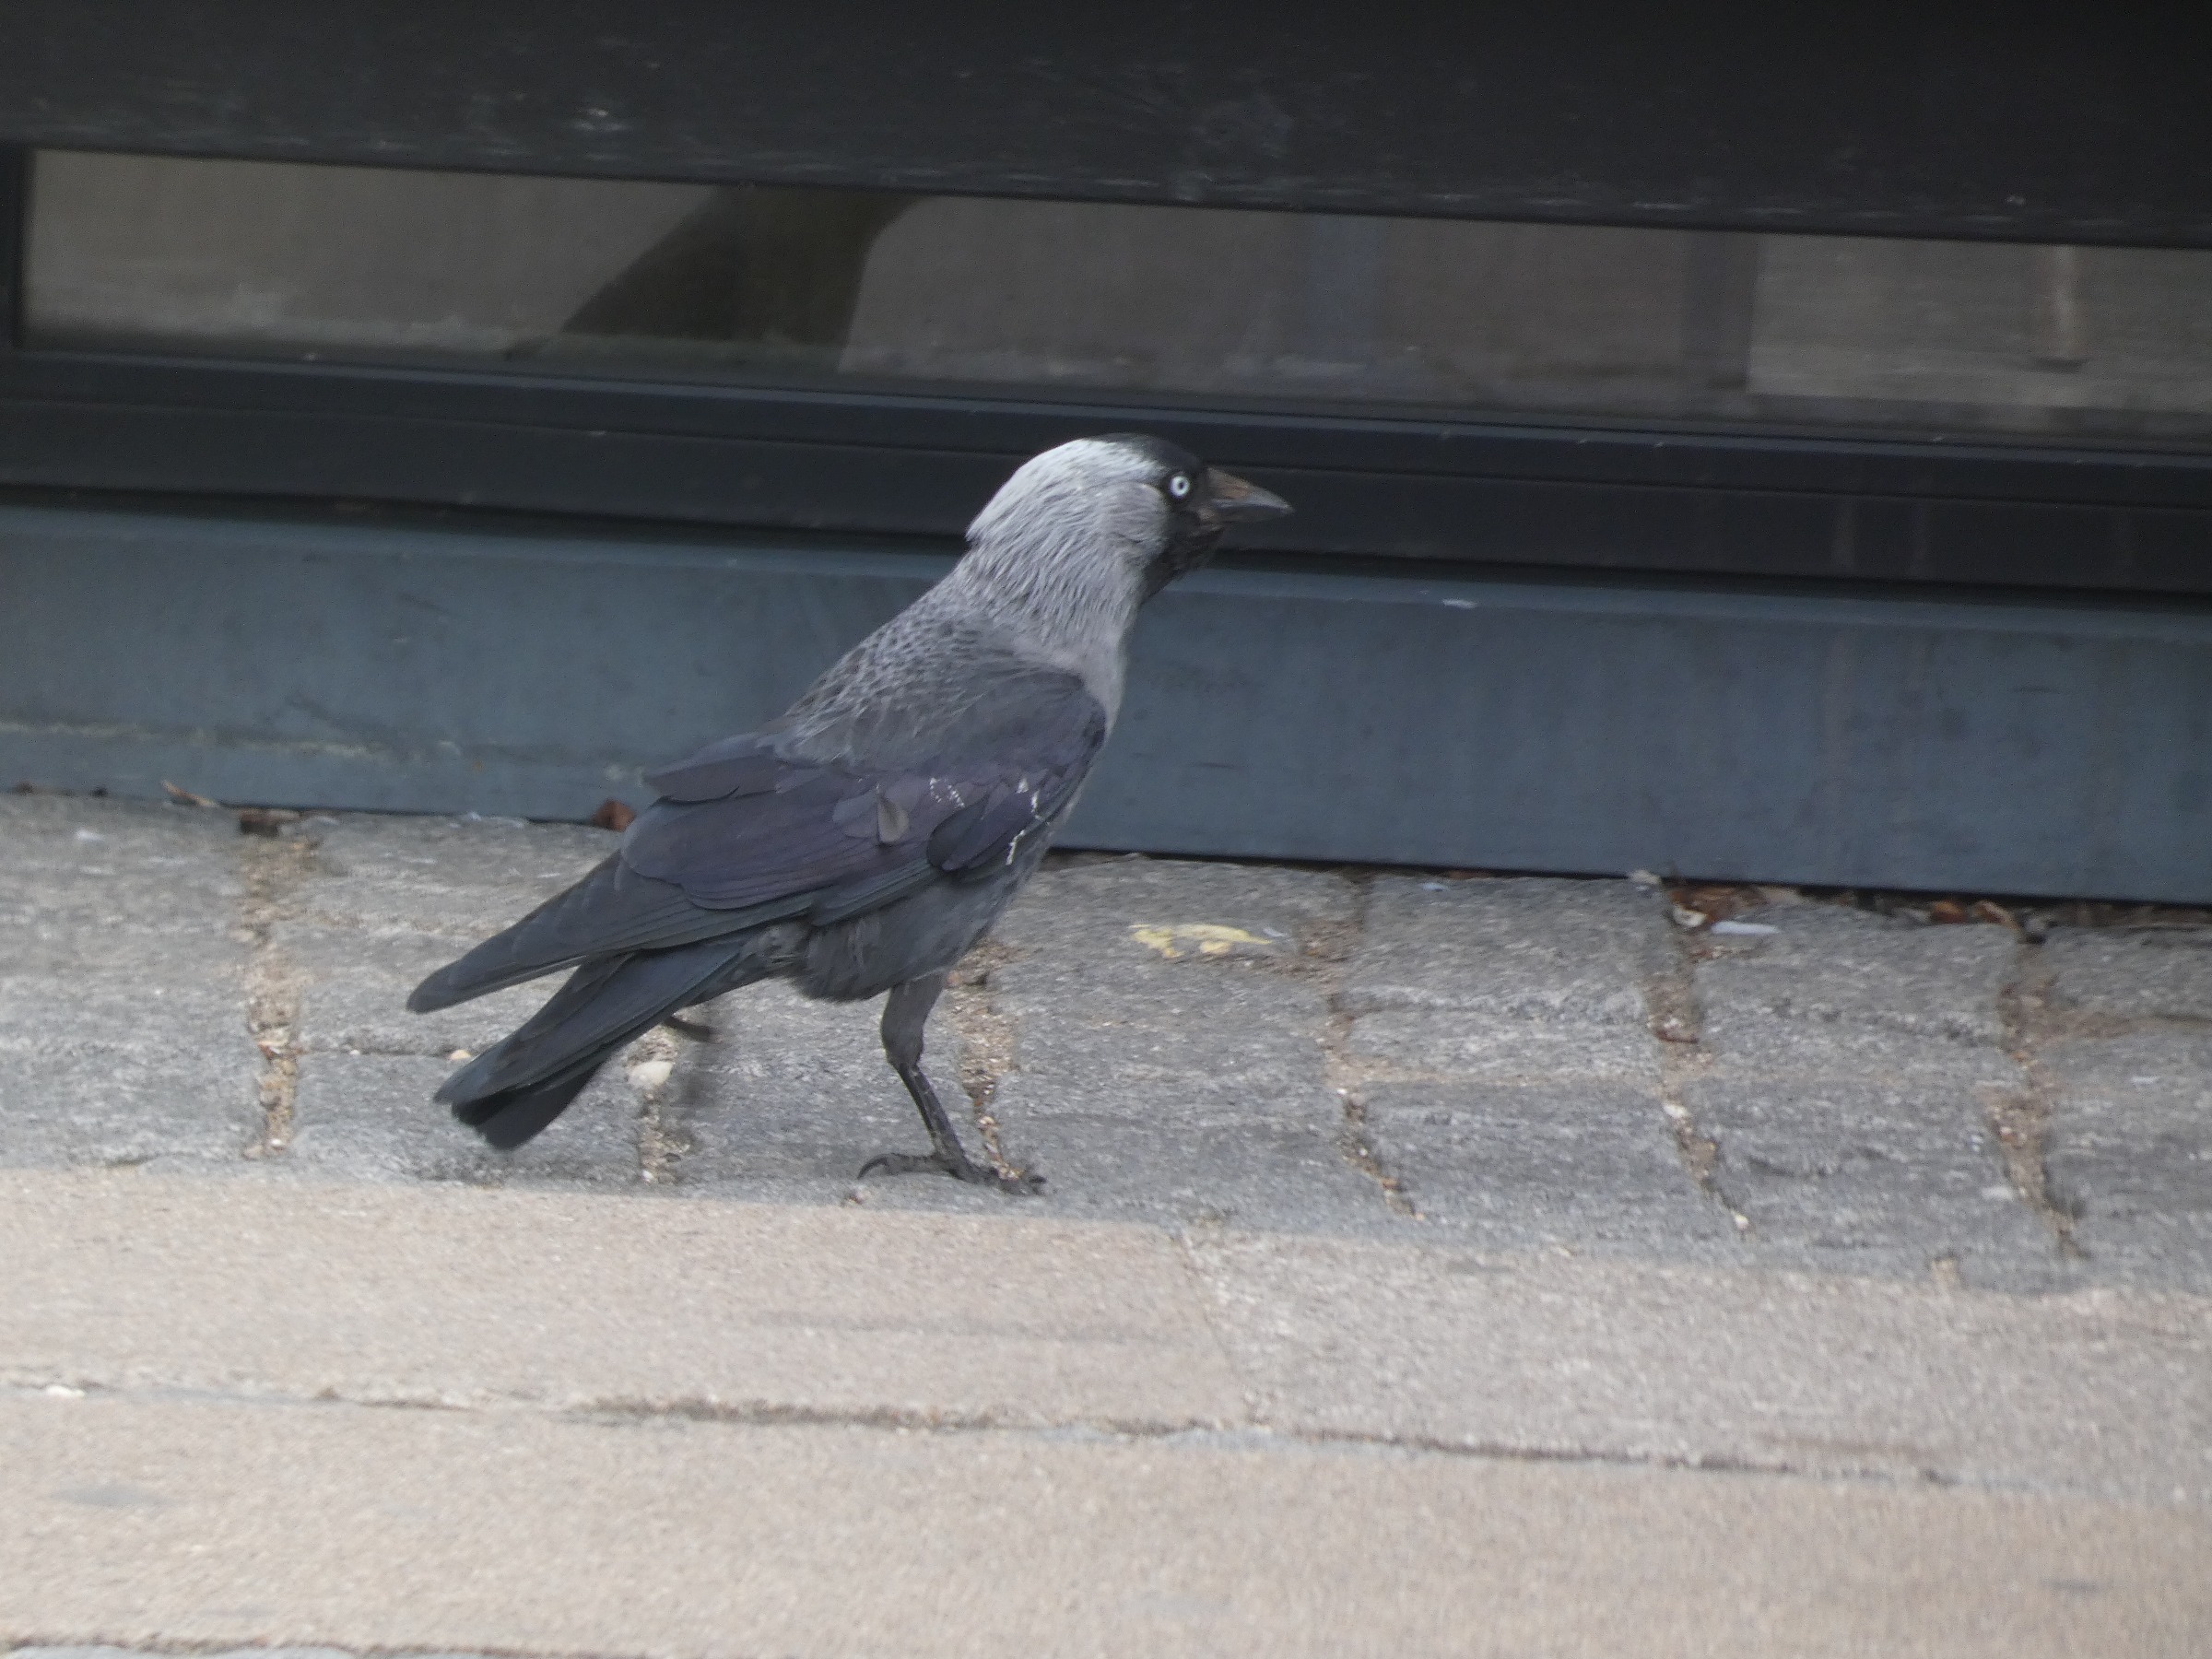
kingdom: Animalia
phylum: Chordata
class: Aves
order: Passeriformes
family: Corvidae
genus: Coloeus
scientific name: Coloeus monedula
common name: Allike
